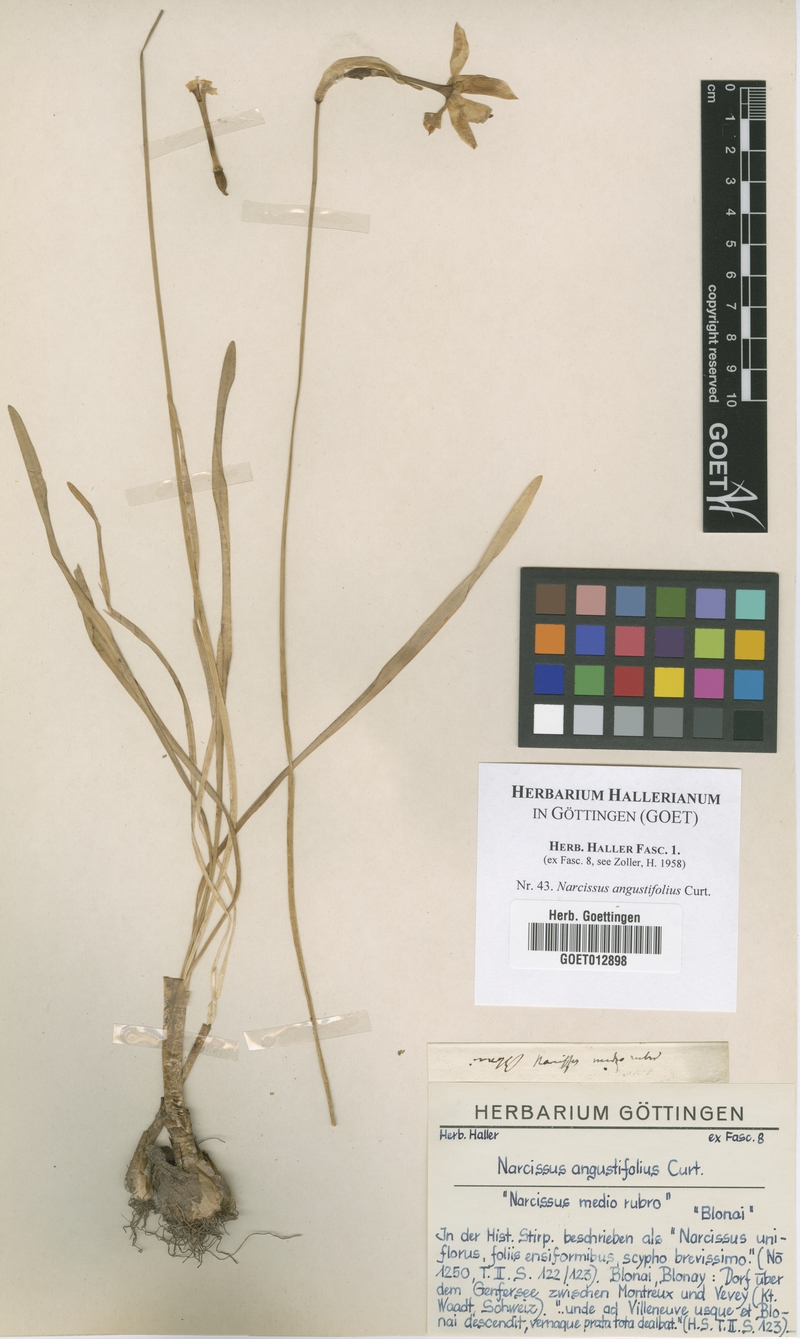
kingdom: Plantae
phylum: Tracheophyta
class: Liliopsida
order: Asparagales
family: Amaryllidaceae
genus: Narcissus
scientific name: Narcissus poeticus
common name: Pheasant's-eye daffodil
